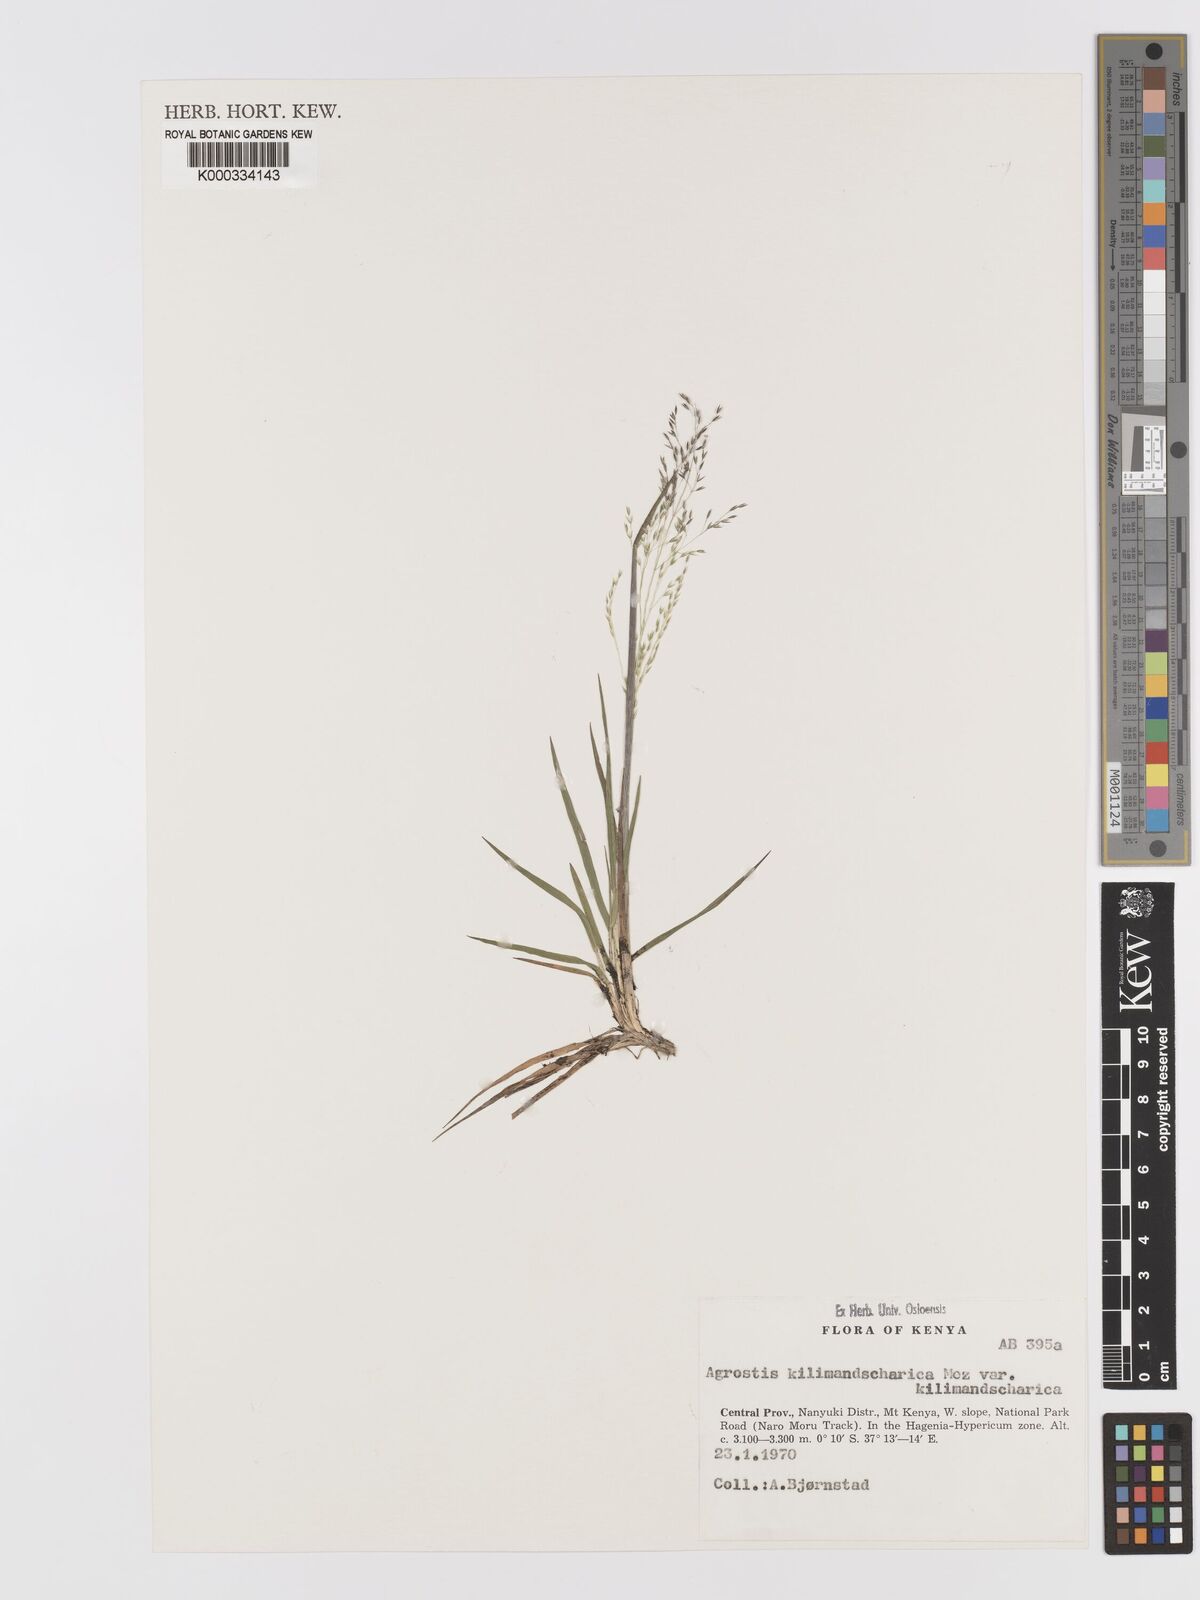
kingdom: Plantae
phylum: Tracheophyta
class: Liliopsida
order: Poales
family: Poaceae
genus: Agrostis
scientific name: Agrostis kilimandscharica
